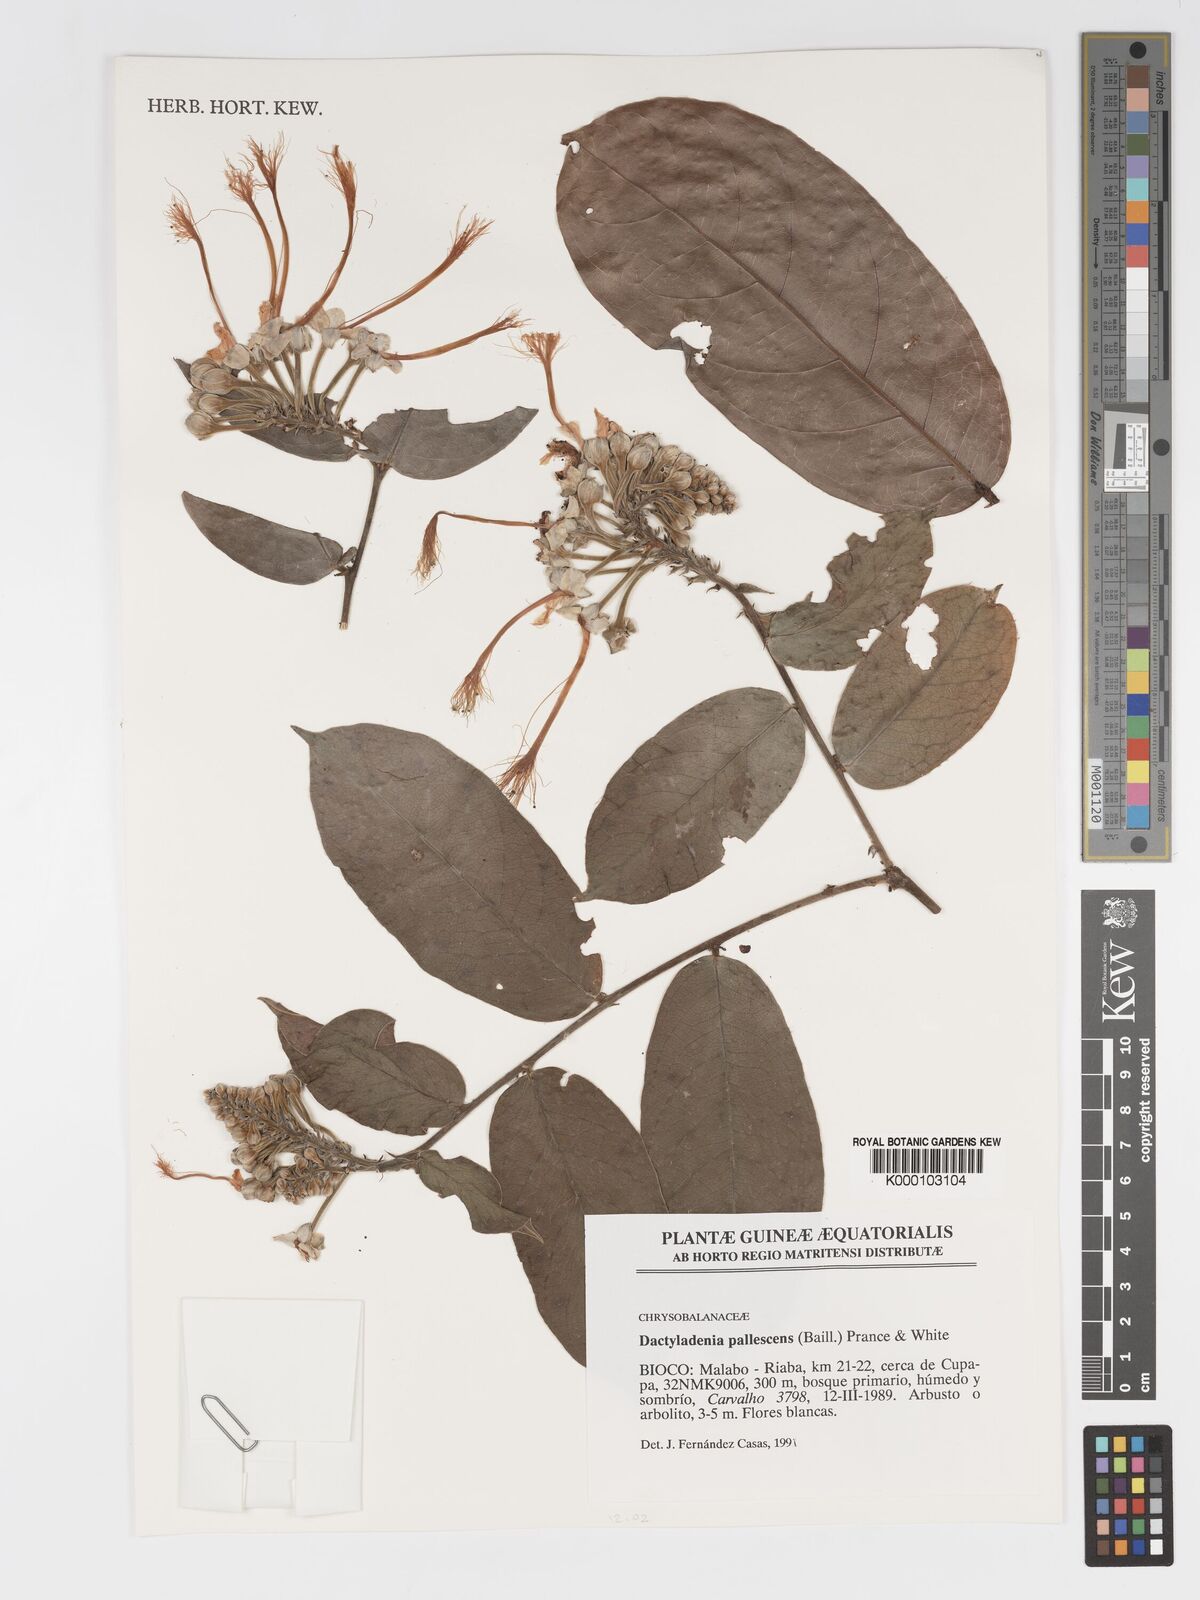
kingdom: Plantae
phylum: Tracheophyta
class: Magnoliopsida
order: Malpighiales
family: Chrysobalanaceae
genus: Dactyladenia
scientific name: Dactyladenia pallescens
